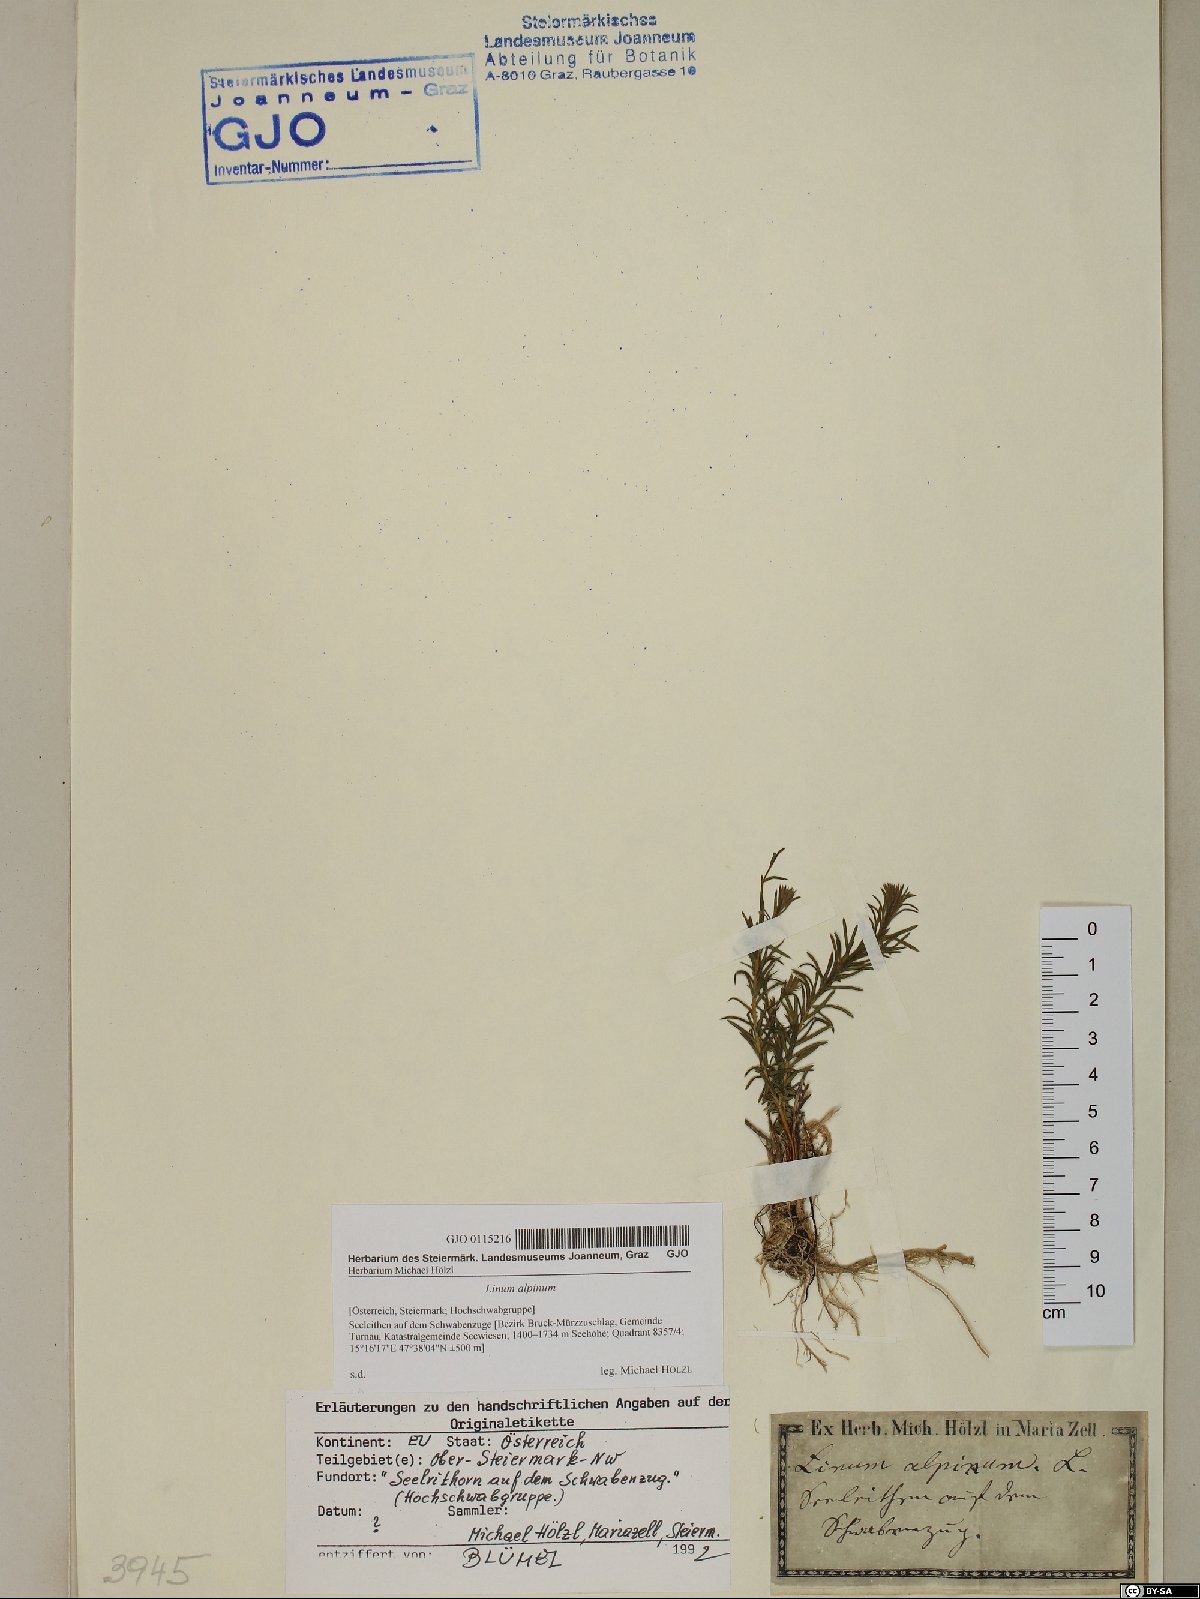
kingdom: Plantae
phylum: Tracheophyta
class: Magnoliopsida
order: Malpighiales
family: Linaceae
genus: Linum
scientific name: Linum alpinum
